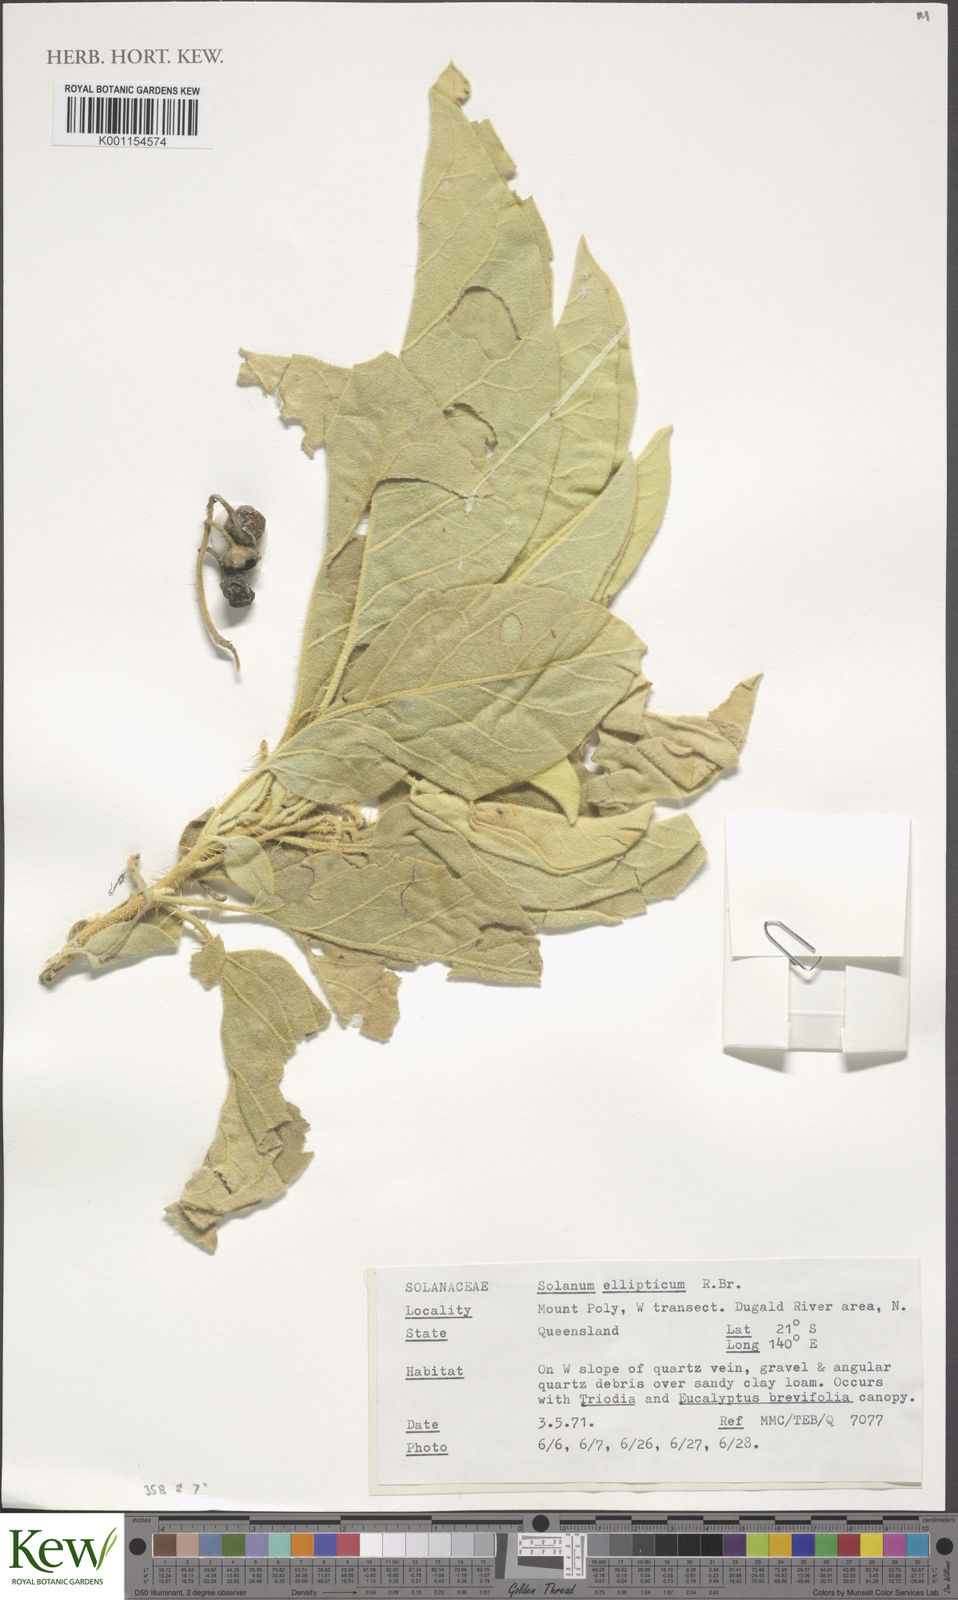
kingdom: Plantae
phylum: Tracheophyta
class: Magnoliopsida
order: Solanales
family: Solanaceae
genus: Solanum
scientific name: Solanum ellipticum
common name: Potato-bush
